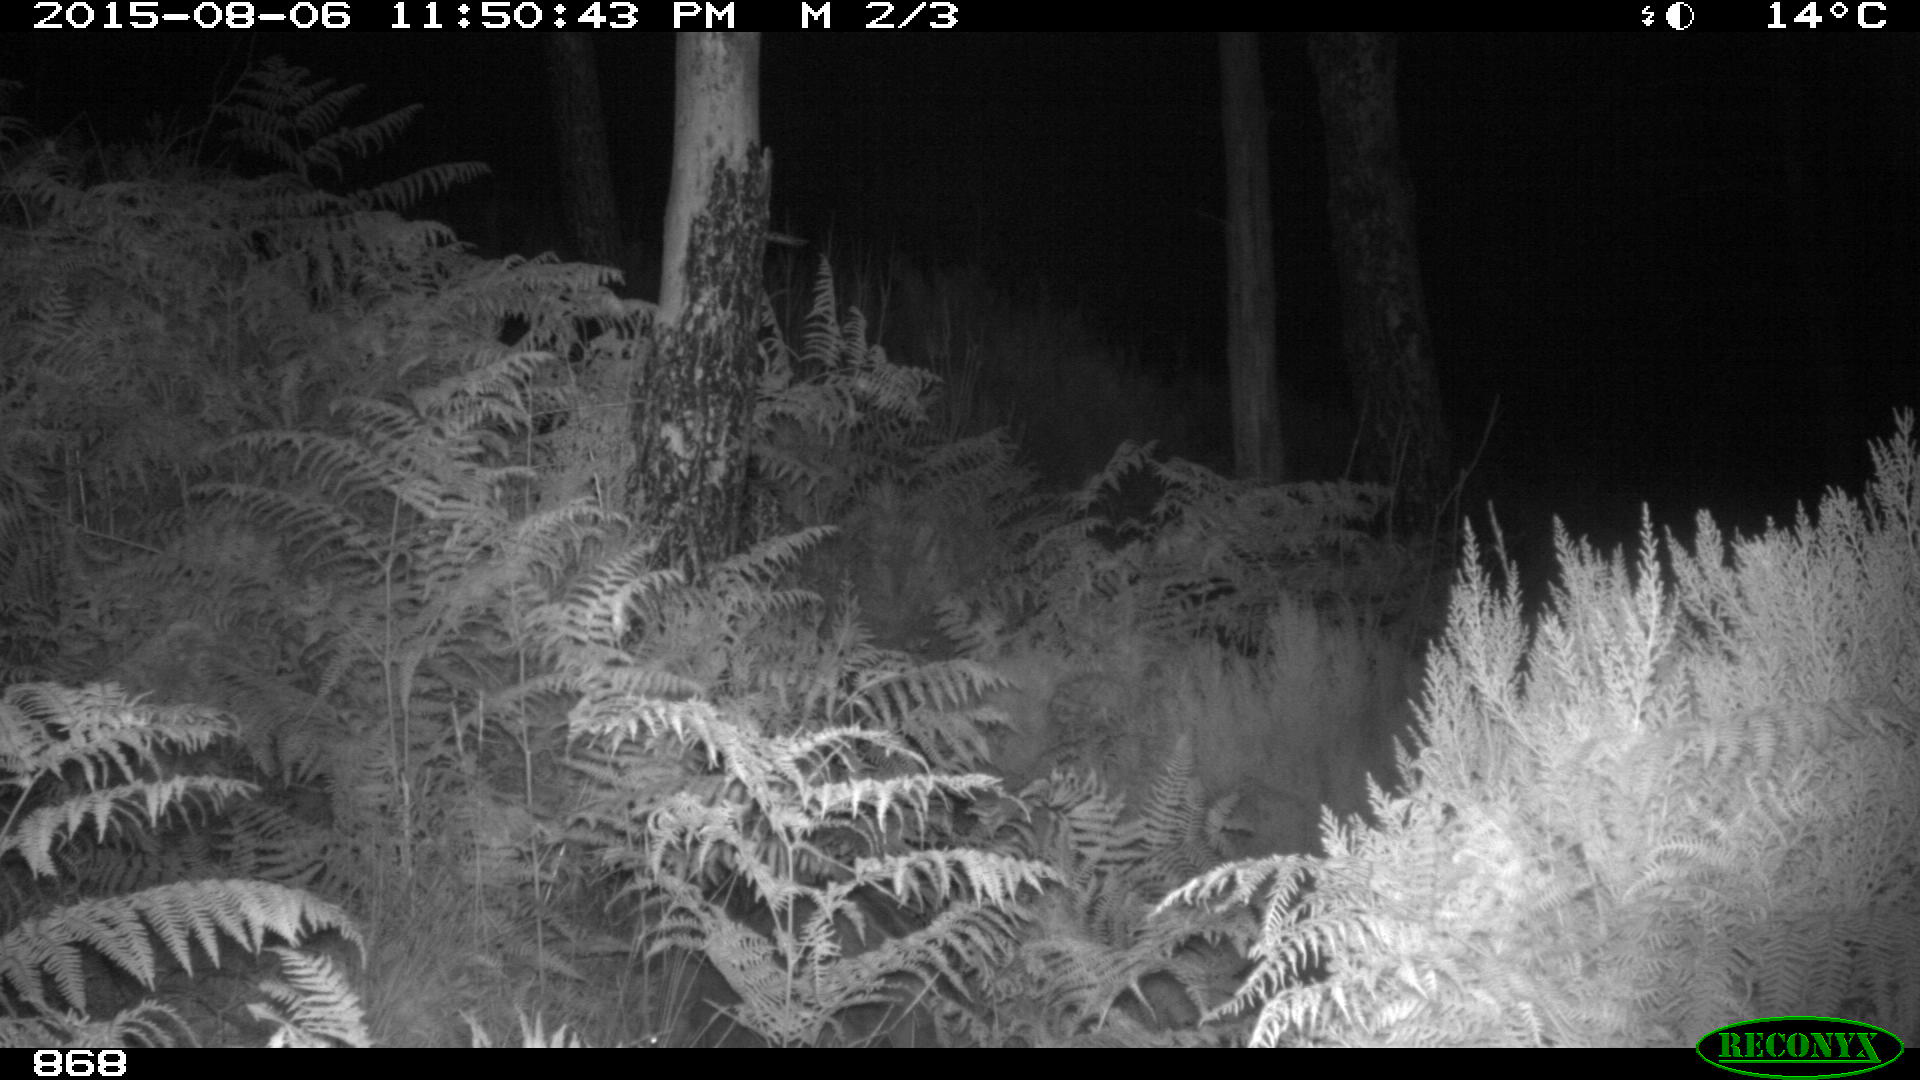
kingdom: Animalia
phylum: Chordata
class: Mammalia
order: Artiodactyla
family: Suidae
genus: Sus
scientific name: Sus scrofa
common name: Wild boar
